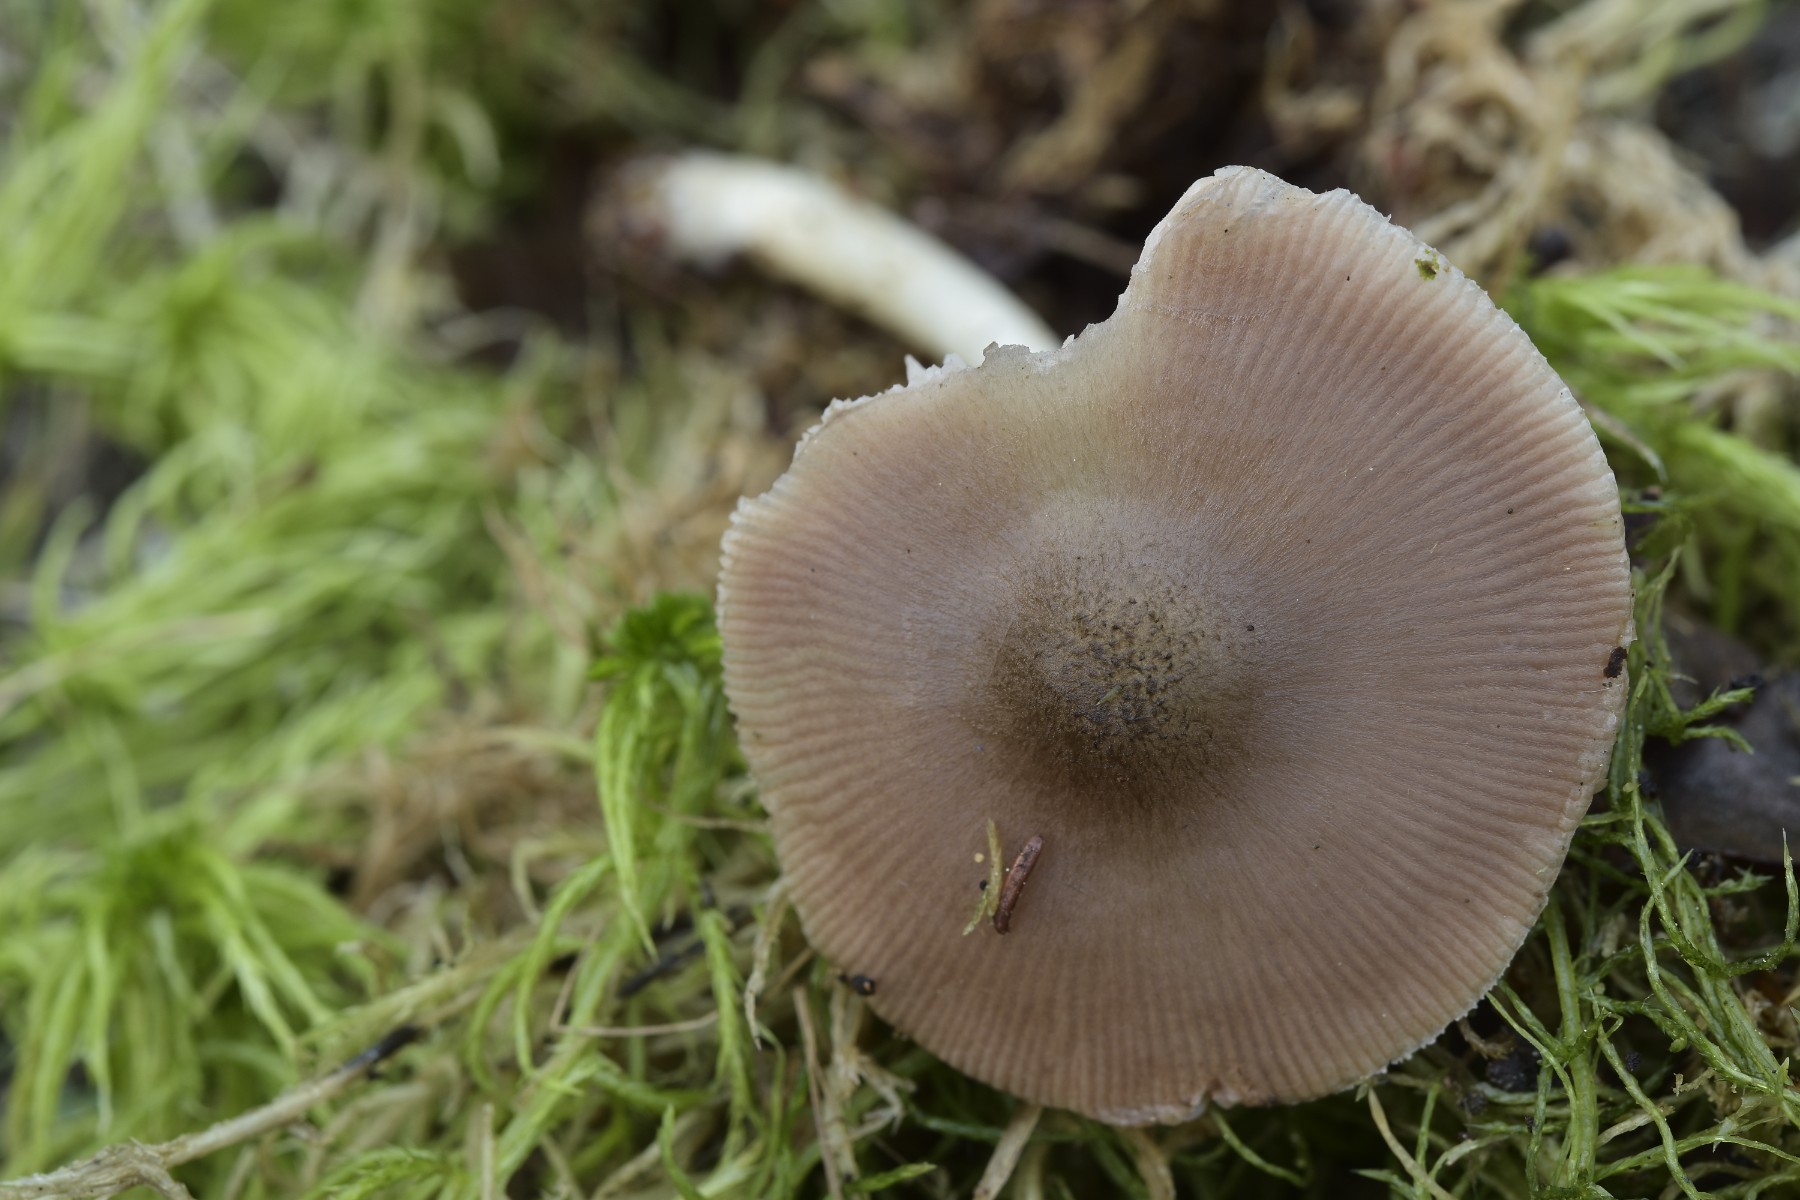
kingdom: Fungi
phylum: Basidiomycota
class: Agaricomycetes
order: Agaricales
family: Pluteaceae
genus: Pluteus
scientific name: Pluteus cervinus
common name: sodfarvet skærmhat
